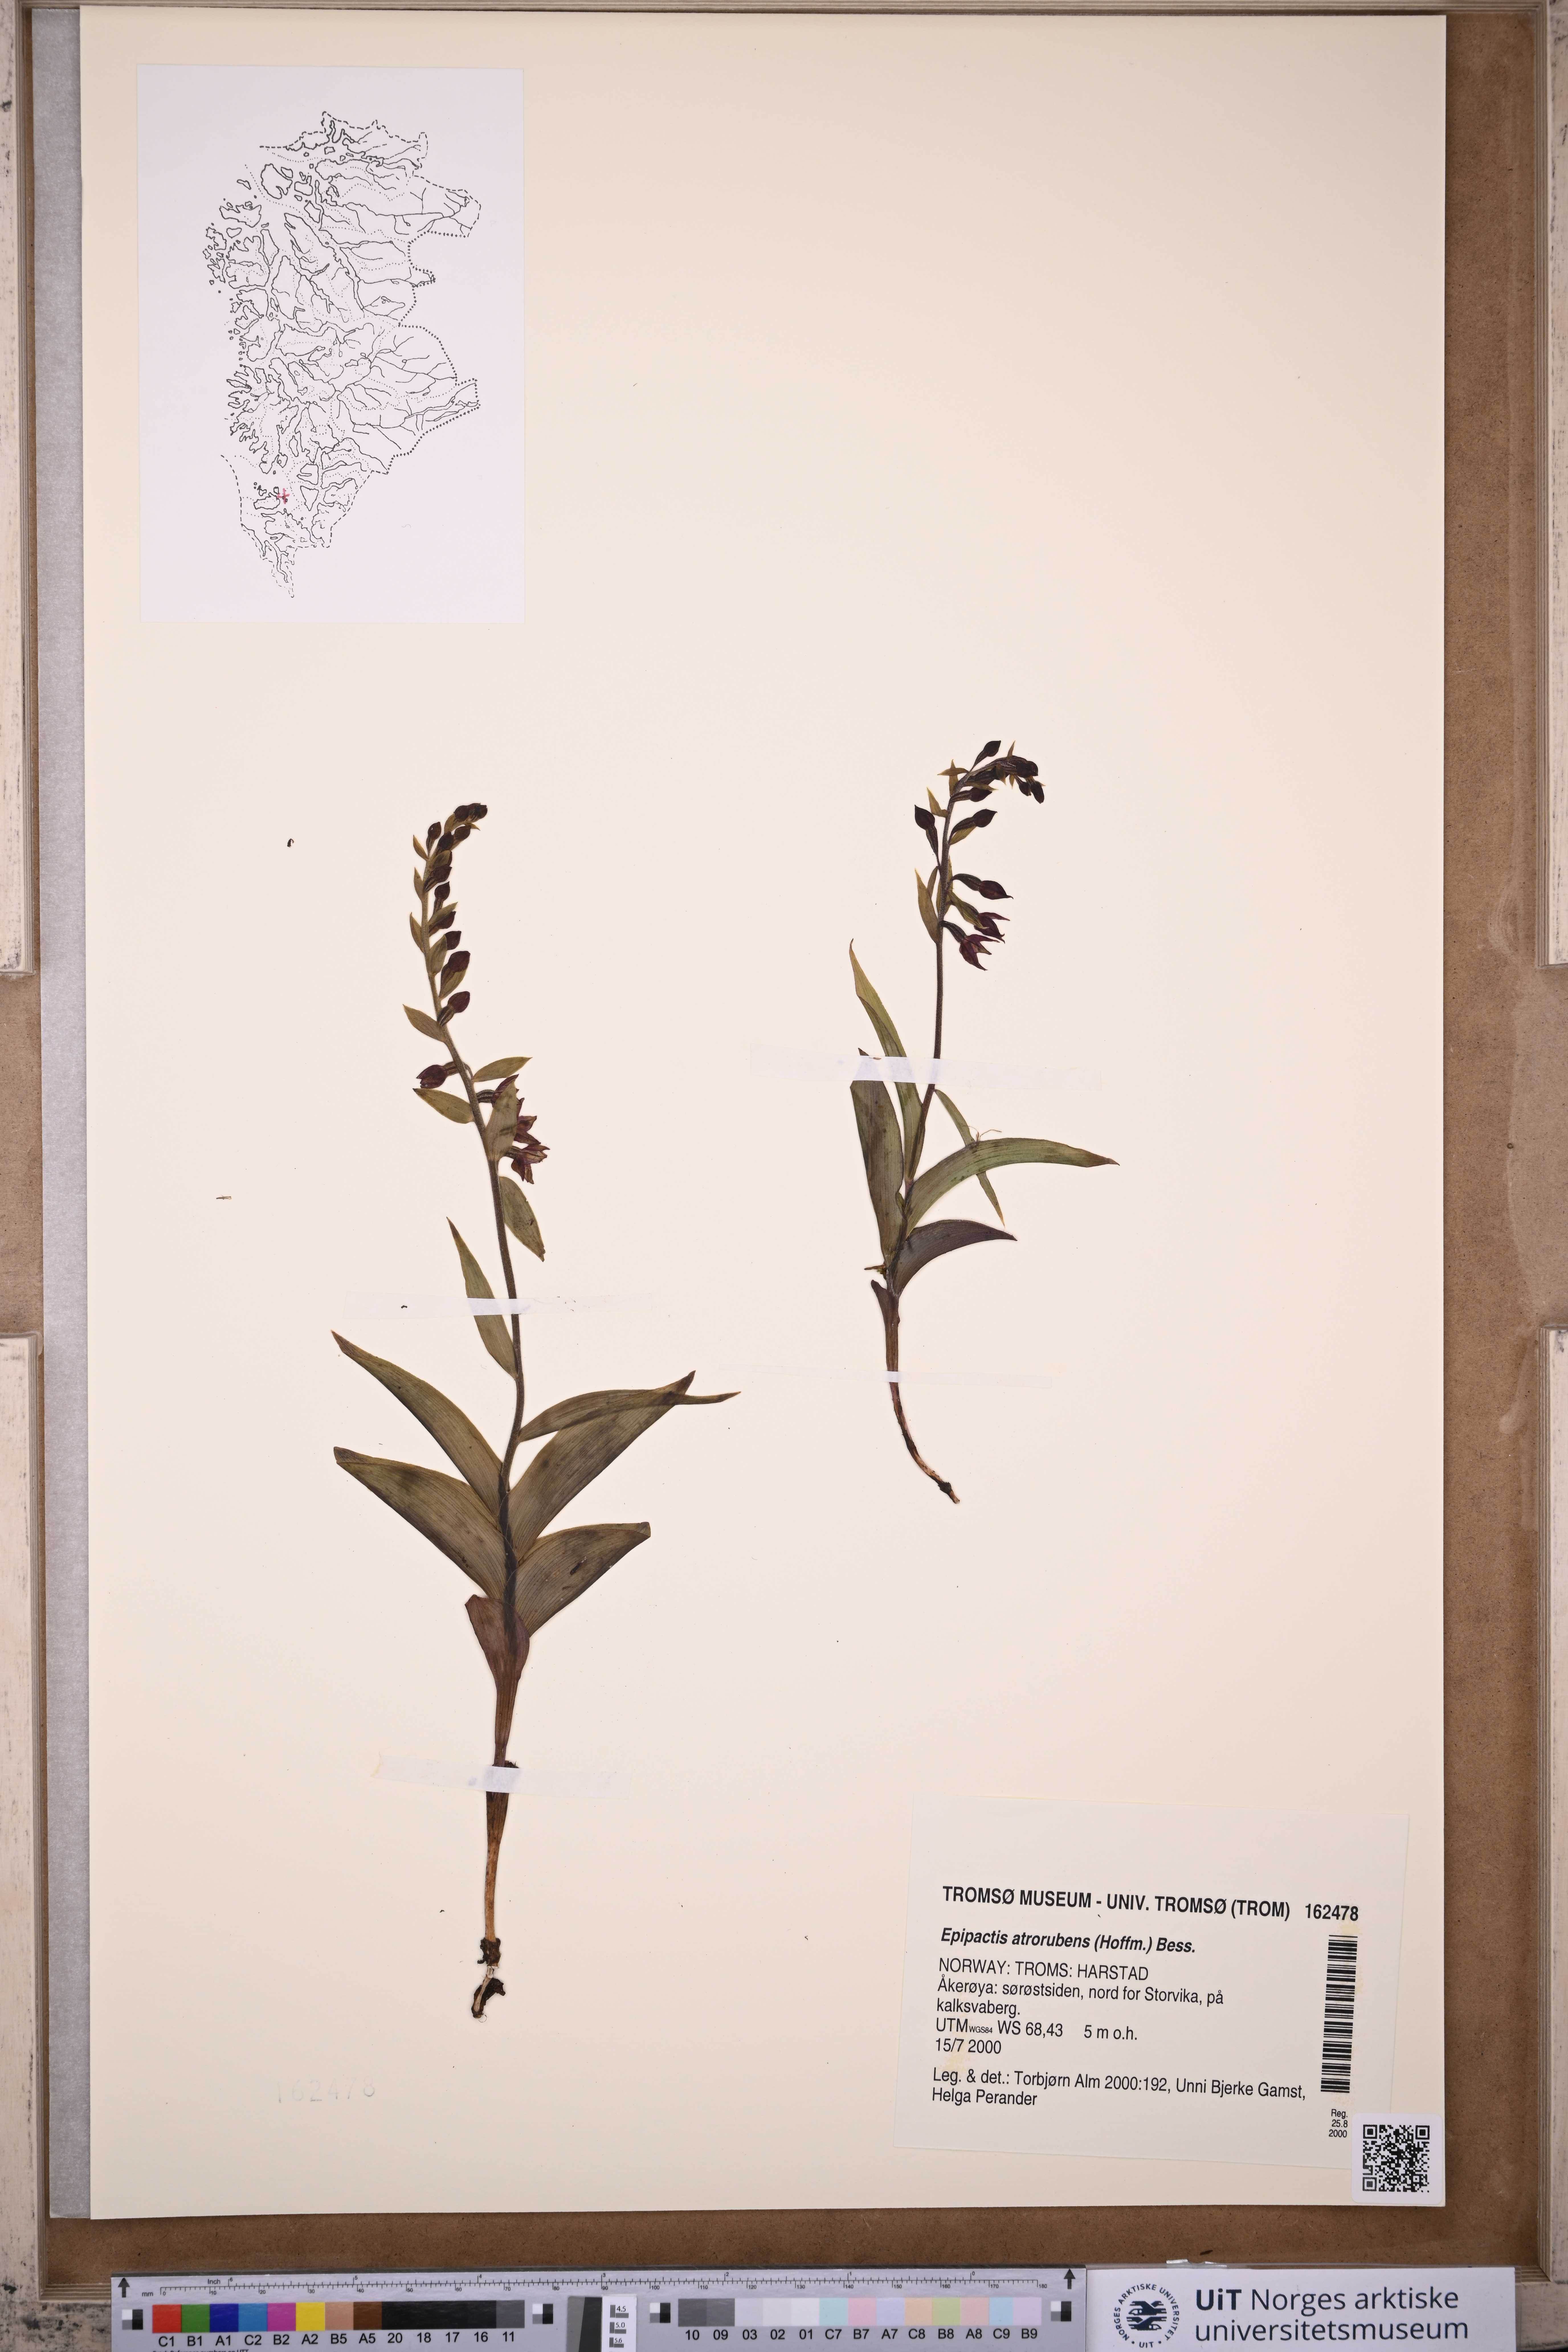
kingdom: Plantae
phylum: Tracheophyta
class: Liliopsida
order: Asparagales
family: Orchidaceae
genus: Epipactis
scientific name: Epipactis atrorubens
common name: Dark-red helleborine
